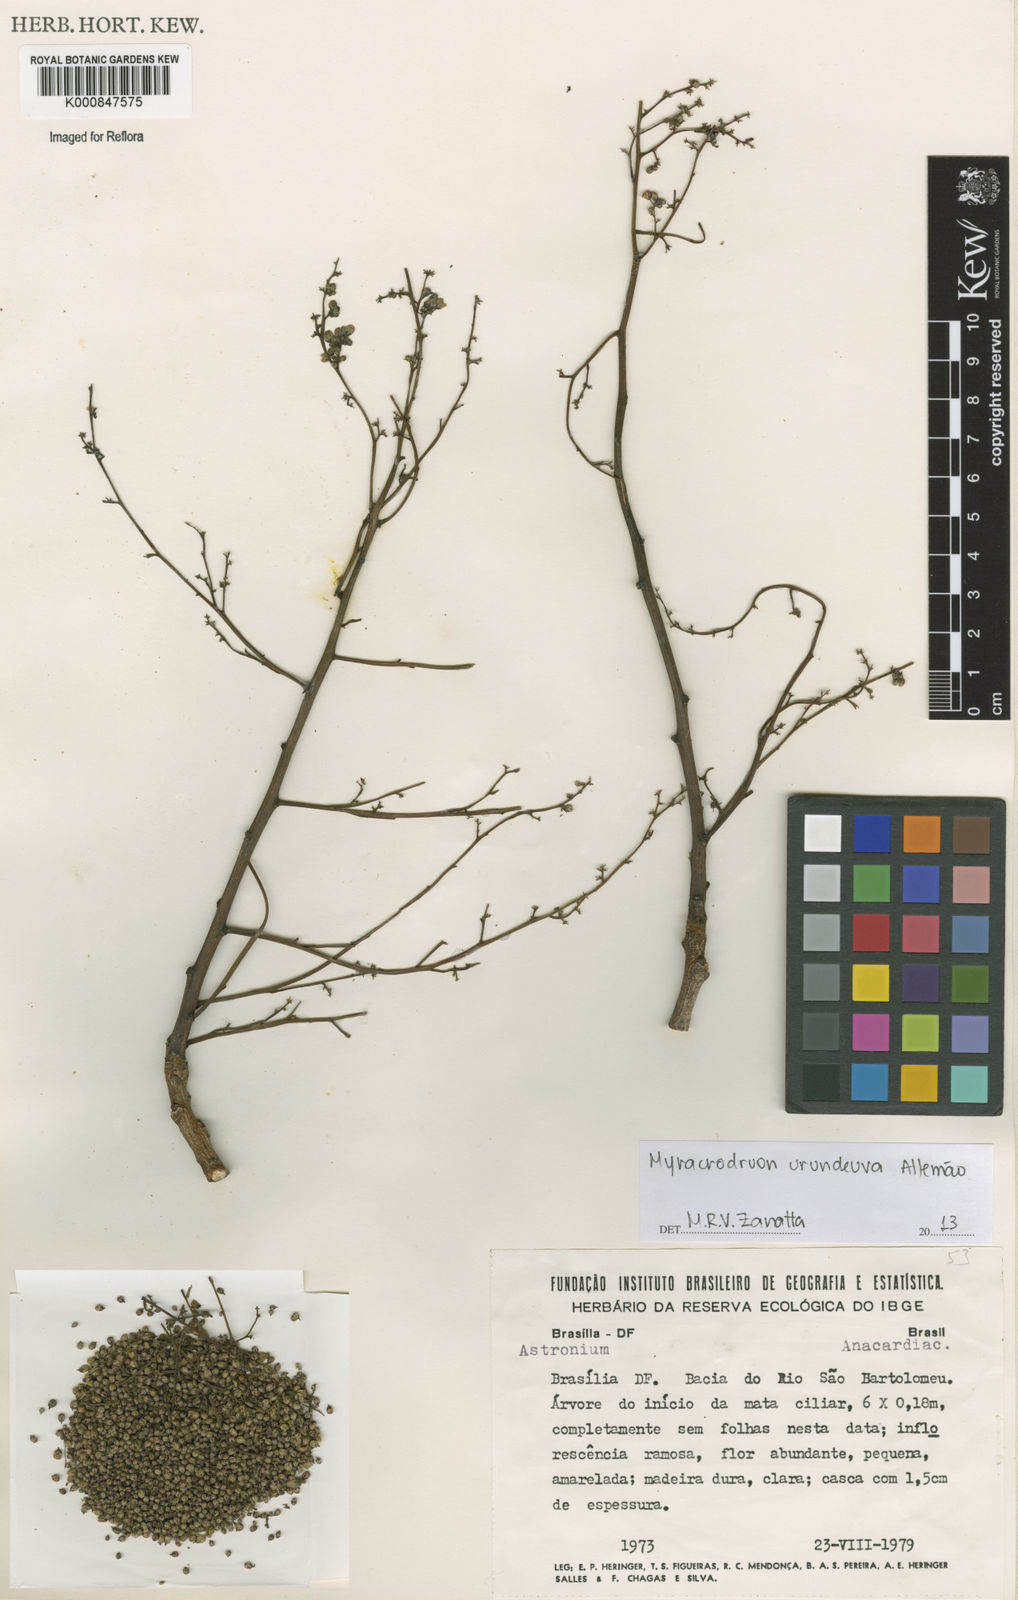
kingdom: Plantae
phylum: Tracheophyta
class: Magnoliopsida
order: Sapindales
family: Anacardiaceae
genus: Astronium
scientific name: Astronium
